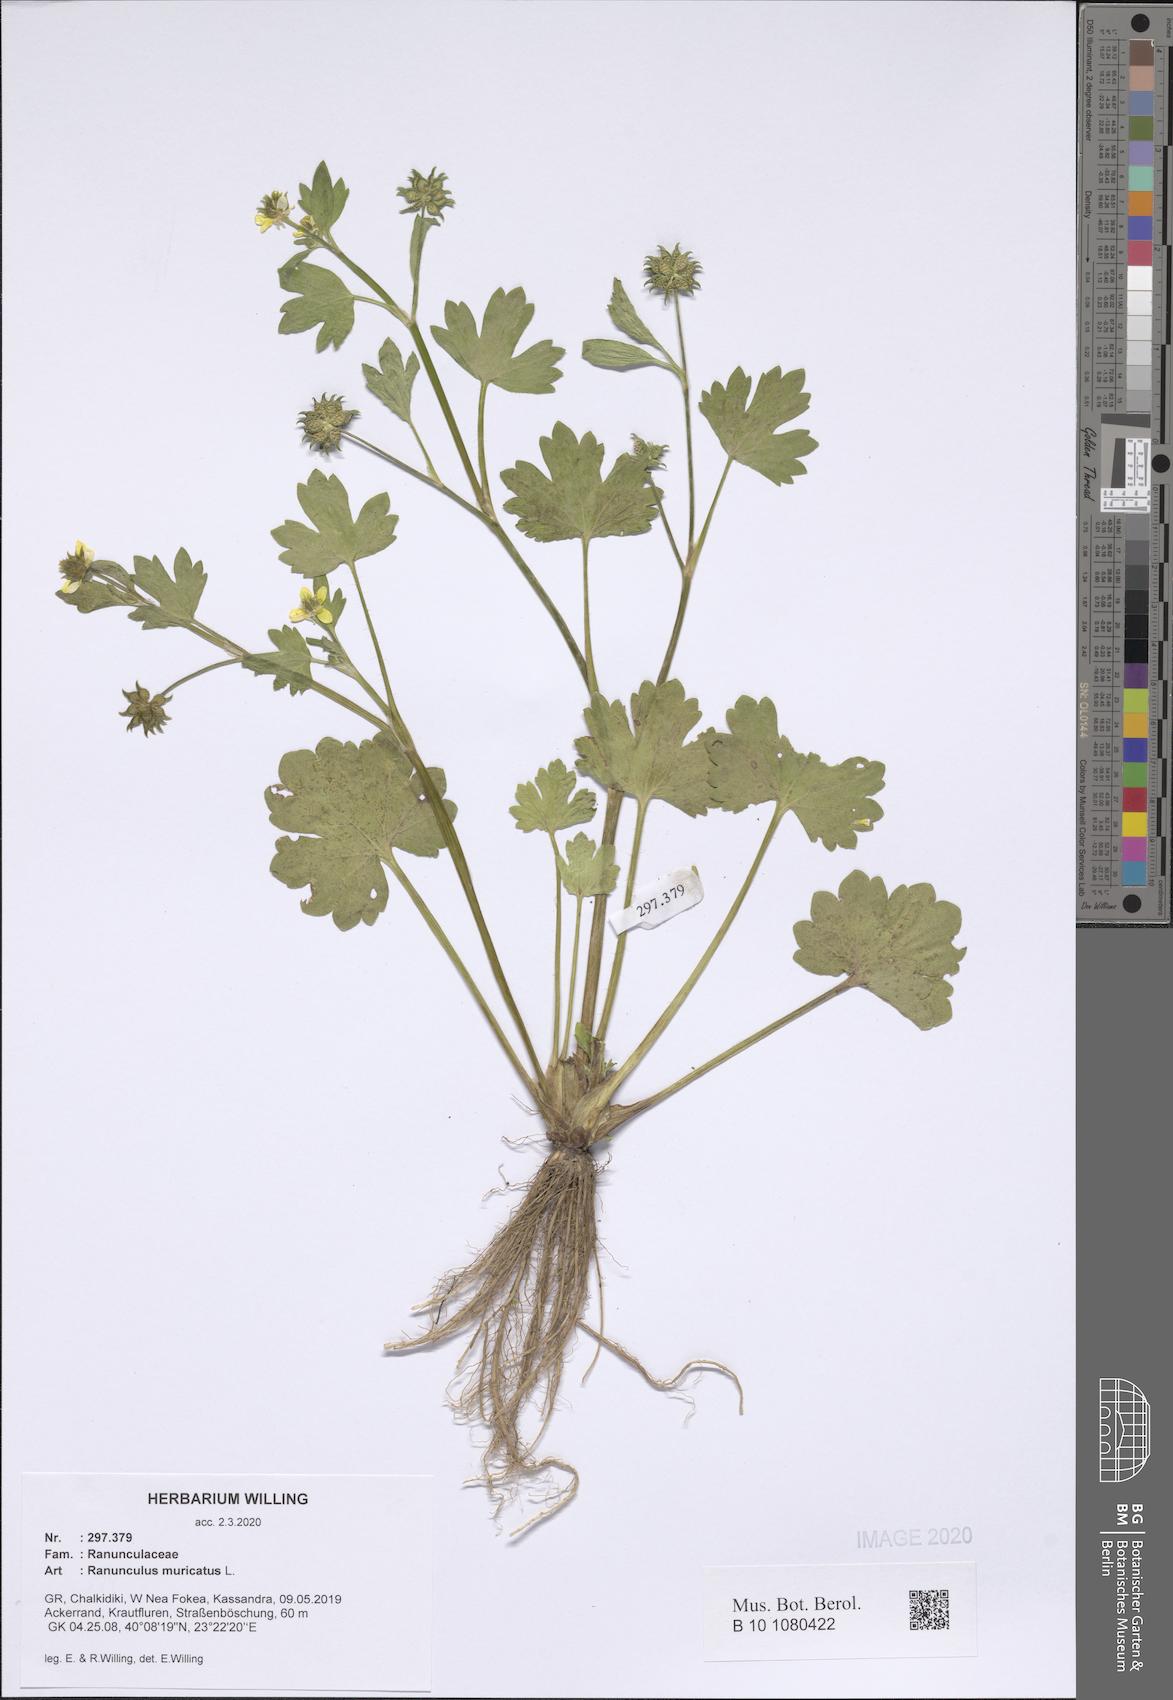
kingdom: Plantae
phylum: Tracheophyta
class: Magnoliopsida
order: Ranunculales
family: Ranunculaceae
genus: Ranunculus
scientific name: Ranunculus muricatus
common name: Rough-fruited buttercup
